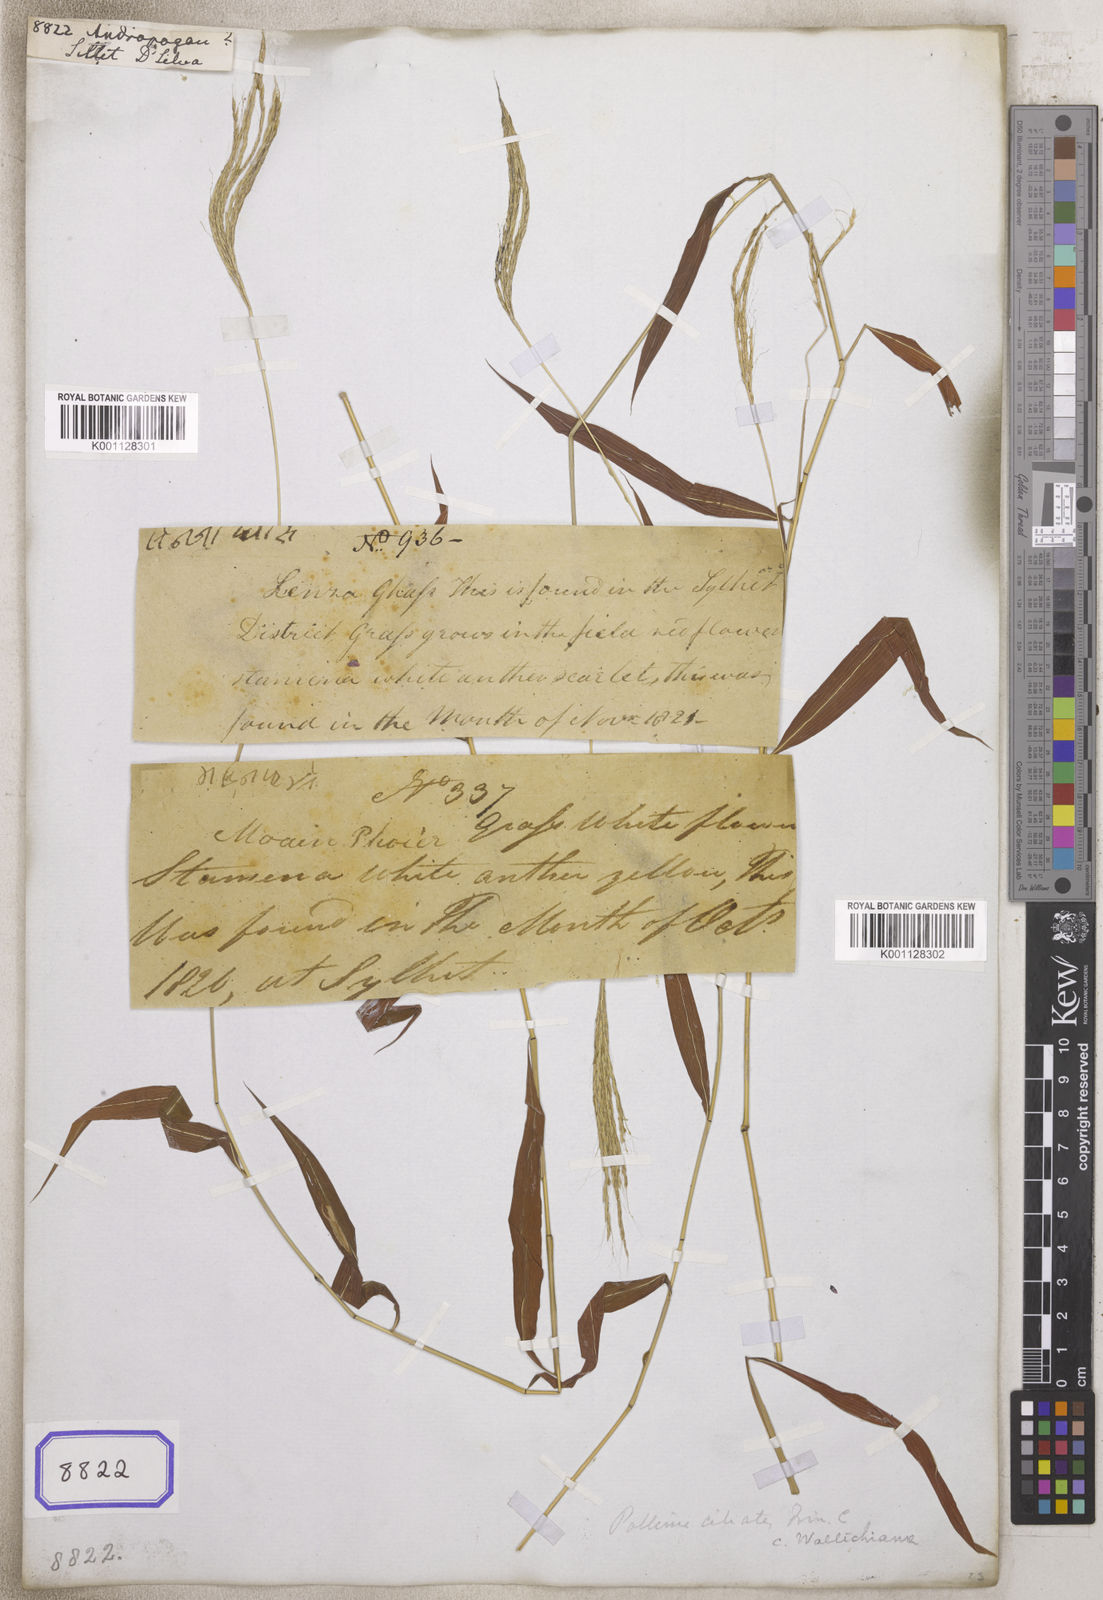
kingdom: Plantae
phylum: Tracheophyta
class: Liliopsida
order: Poales
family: Poaceae
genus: Andropogon
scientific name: Andropogon
